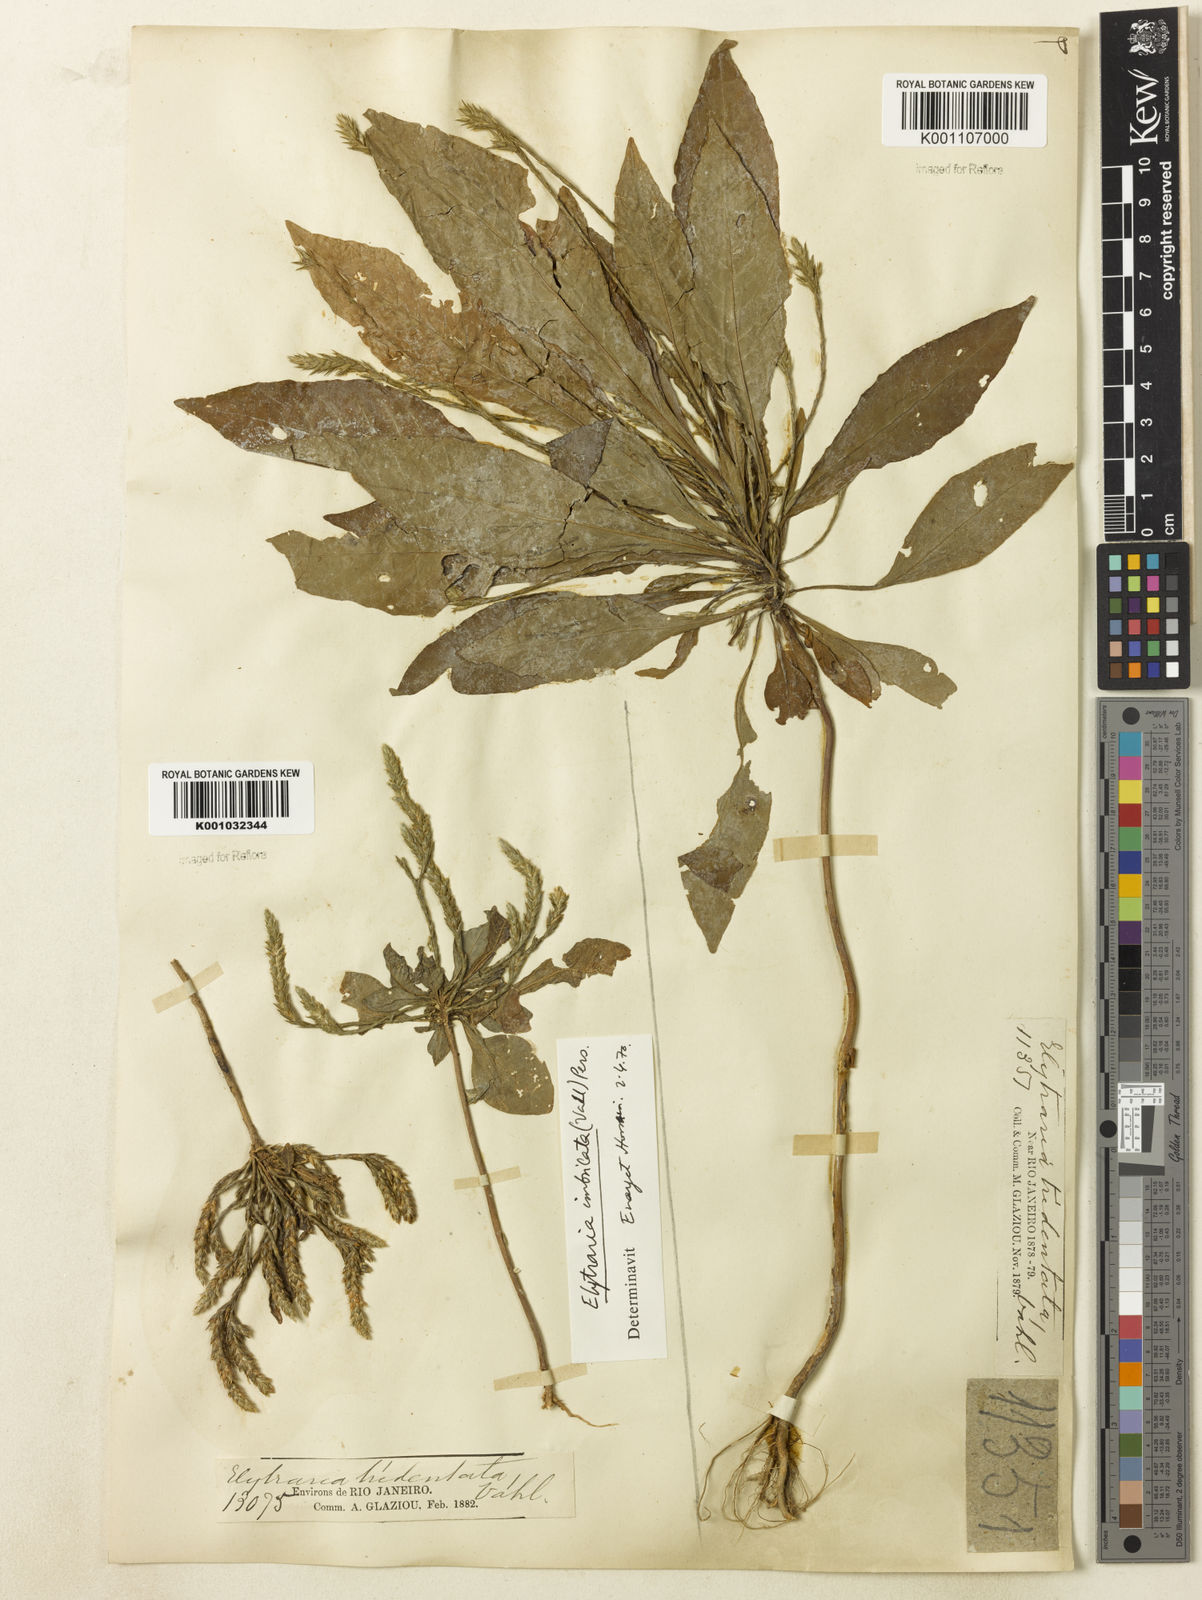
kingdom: Plantae
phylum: Tracheophyta
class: Magnoliopsida
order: Lamiales
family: Acanthaceae
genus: Elytraria
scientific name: Elytraria imbricata
